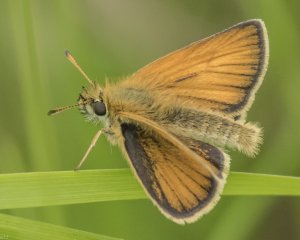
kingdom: Animalia
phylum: Arthropoda
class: Insecta
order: Lepidoptera
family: Hesperiidae
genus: Thymelicus
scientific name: Thymelicus lineola
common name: European Skipper
